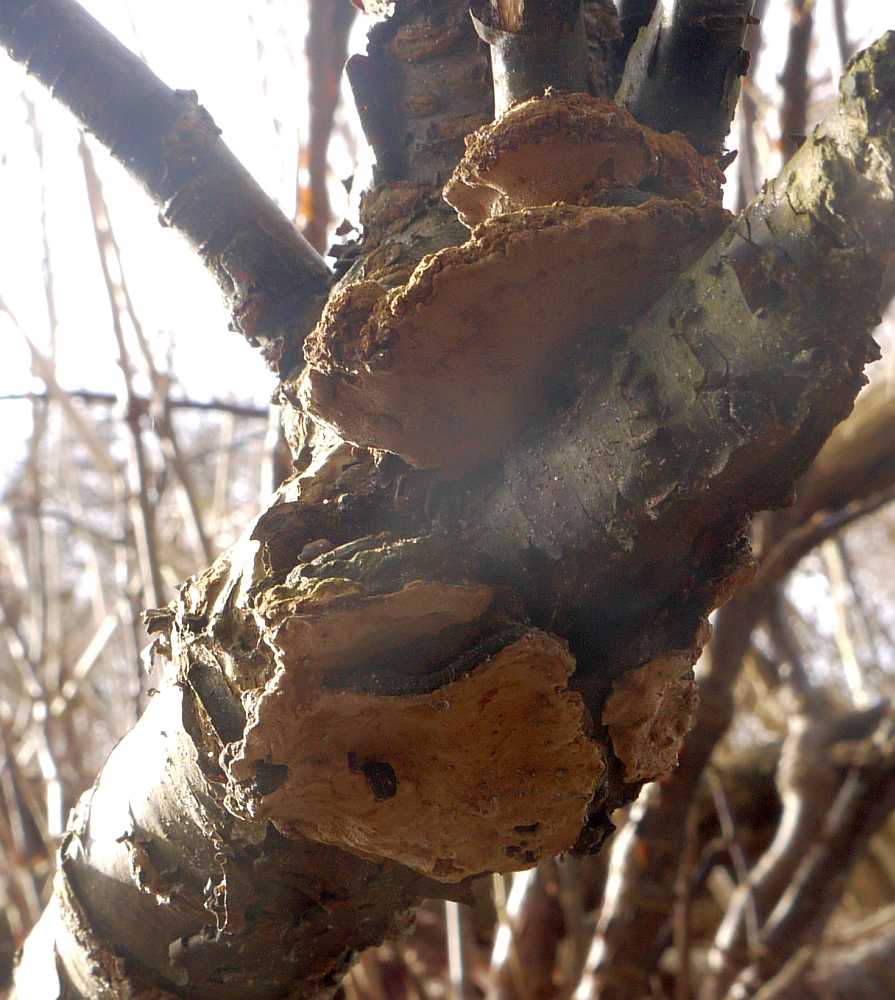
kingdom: Fungi
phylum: Basidiomycota
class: Agaricomycetes
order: Hymenochaetales
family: Hymenochaetaceae
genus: Phylloporia
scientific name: Phylloporia ribis
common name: ribs-ildporesvamp
